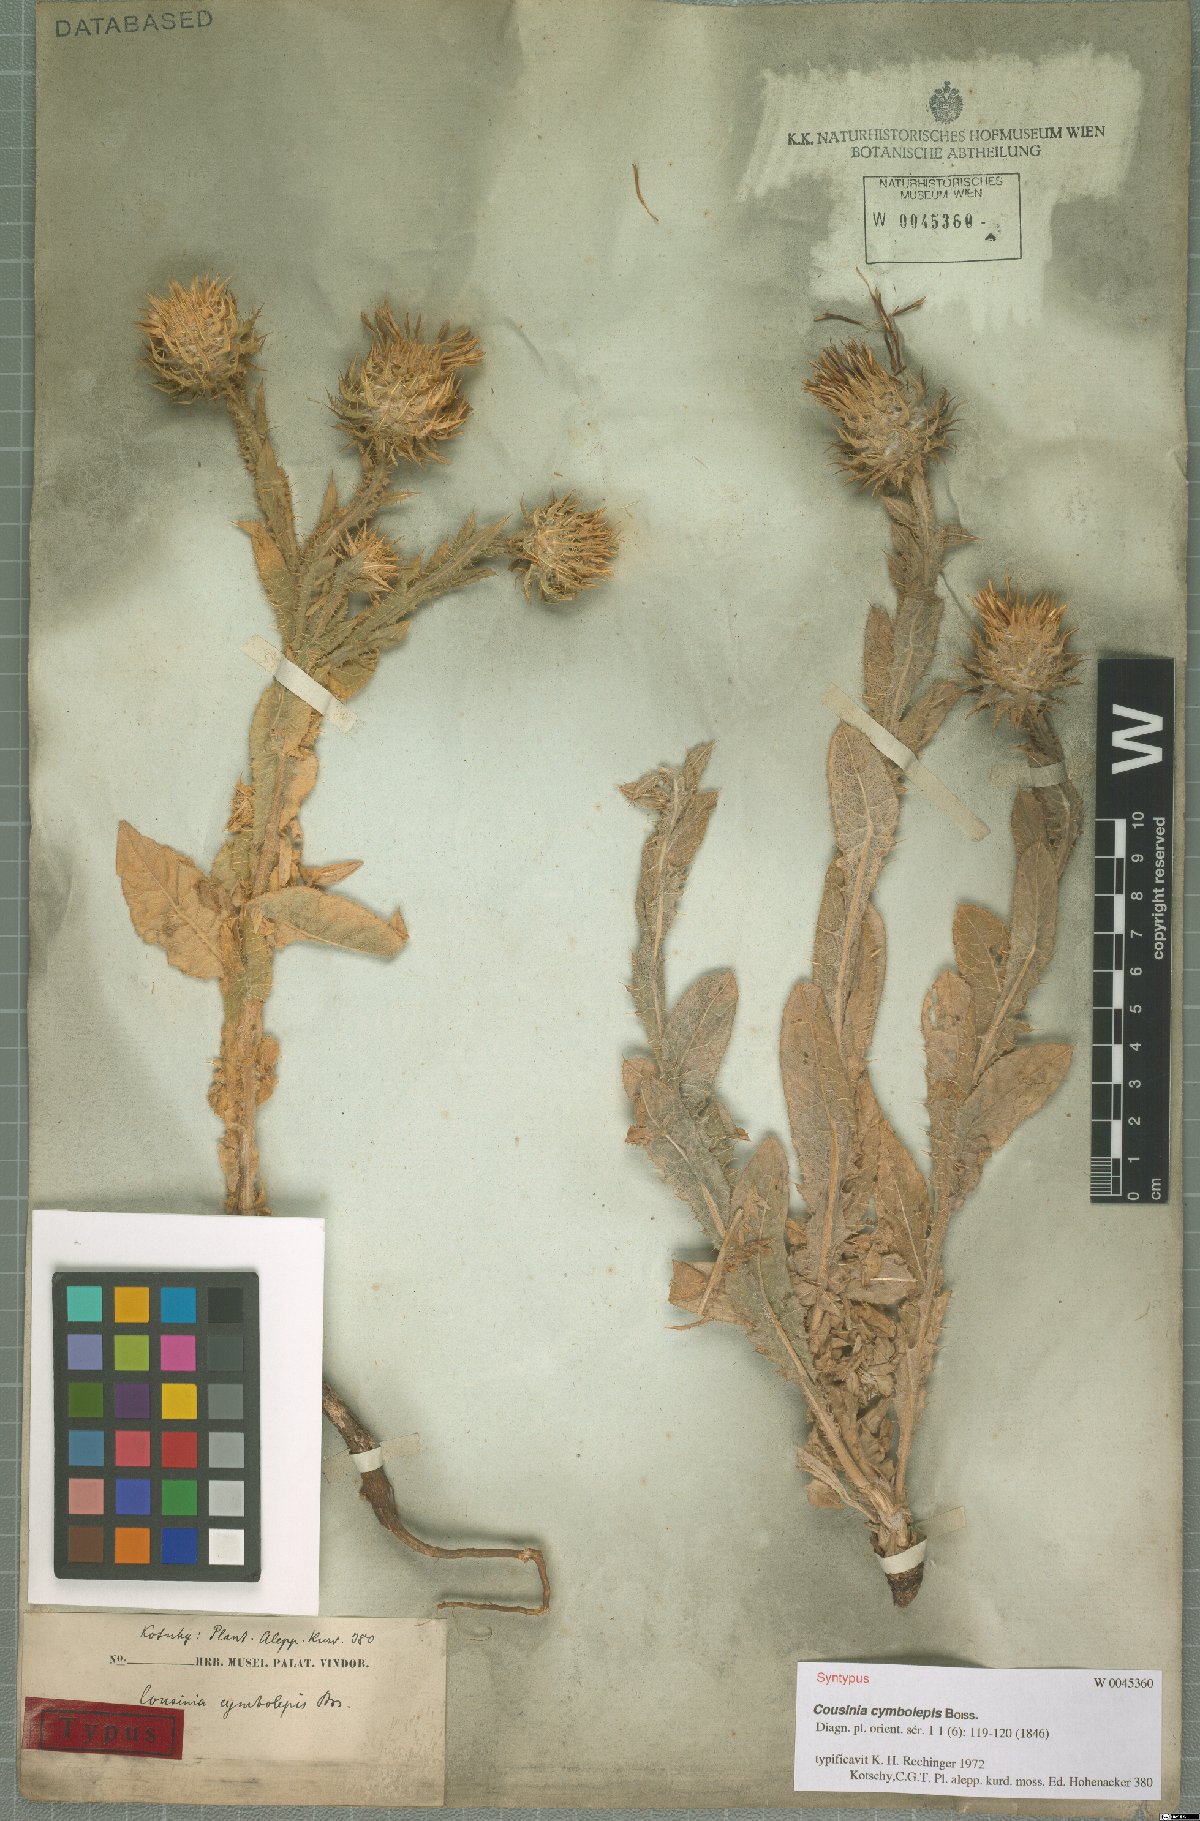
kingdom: Plantae
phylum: Tracheophyta
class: Magnoliopsida
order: Asterales
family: Asteraceae
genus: Cousinia
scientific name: Cousinia odontolepis
